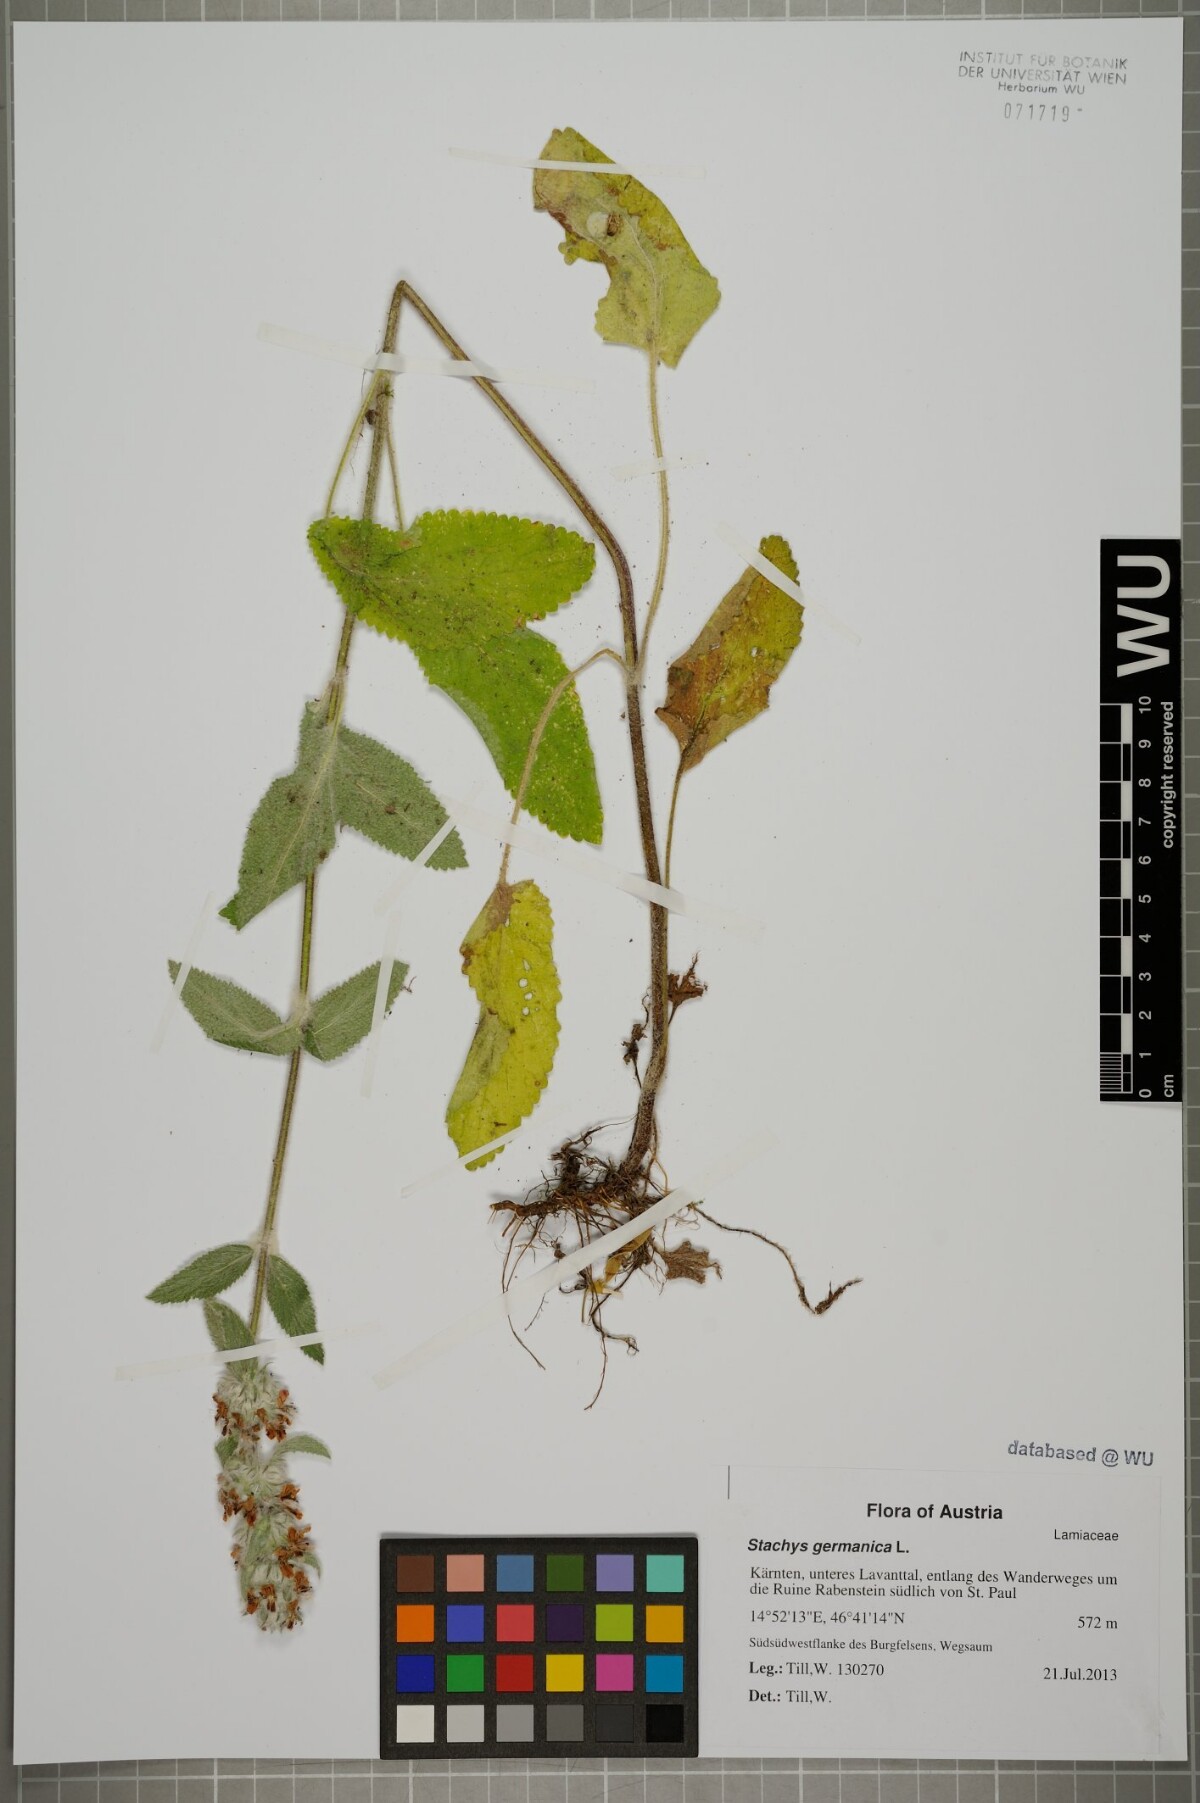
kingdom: Plantae
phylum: Tracheophyta
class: Magnoliopsida
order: Lamiales
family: Lamiaceae
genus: Stachys
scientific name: Stachys germanica
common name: Downy woundwort
